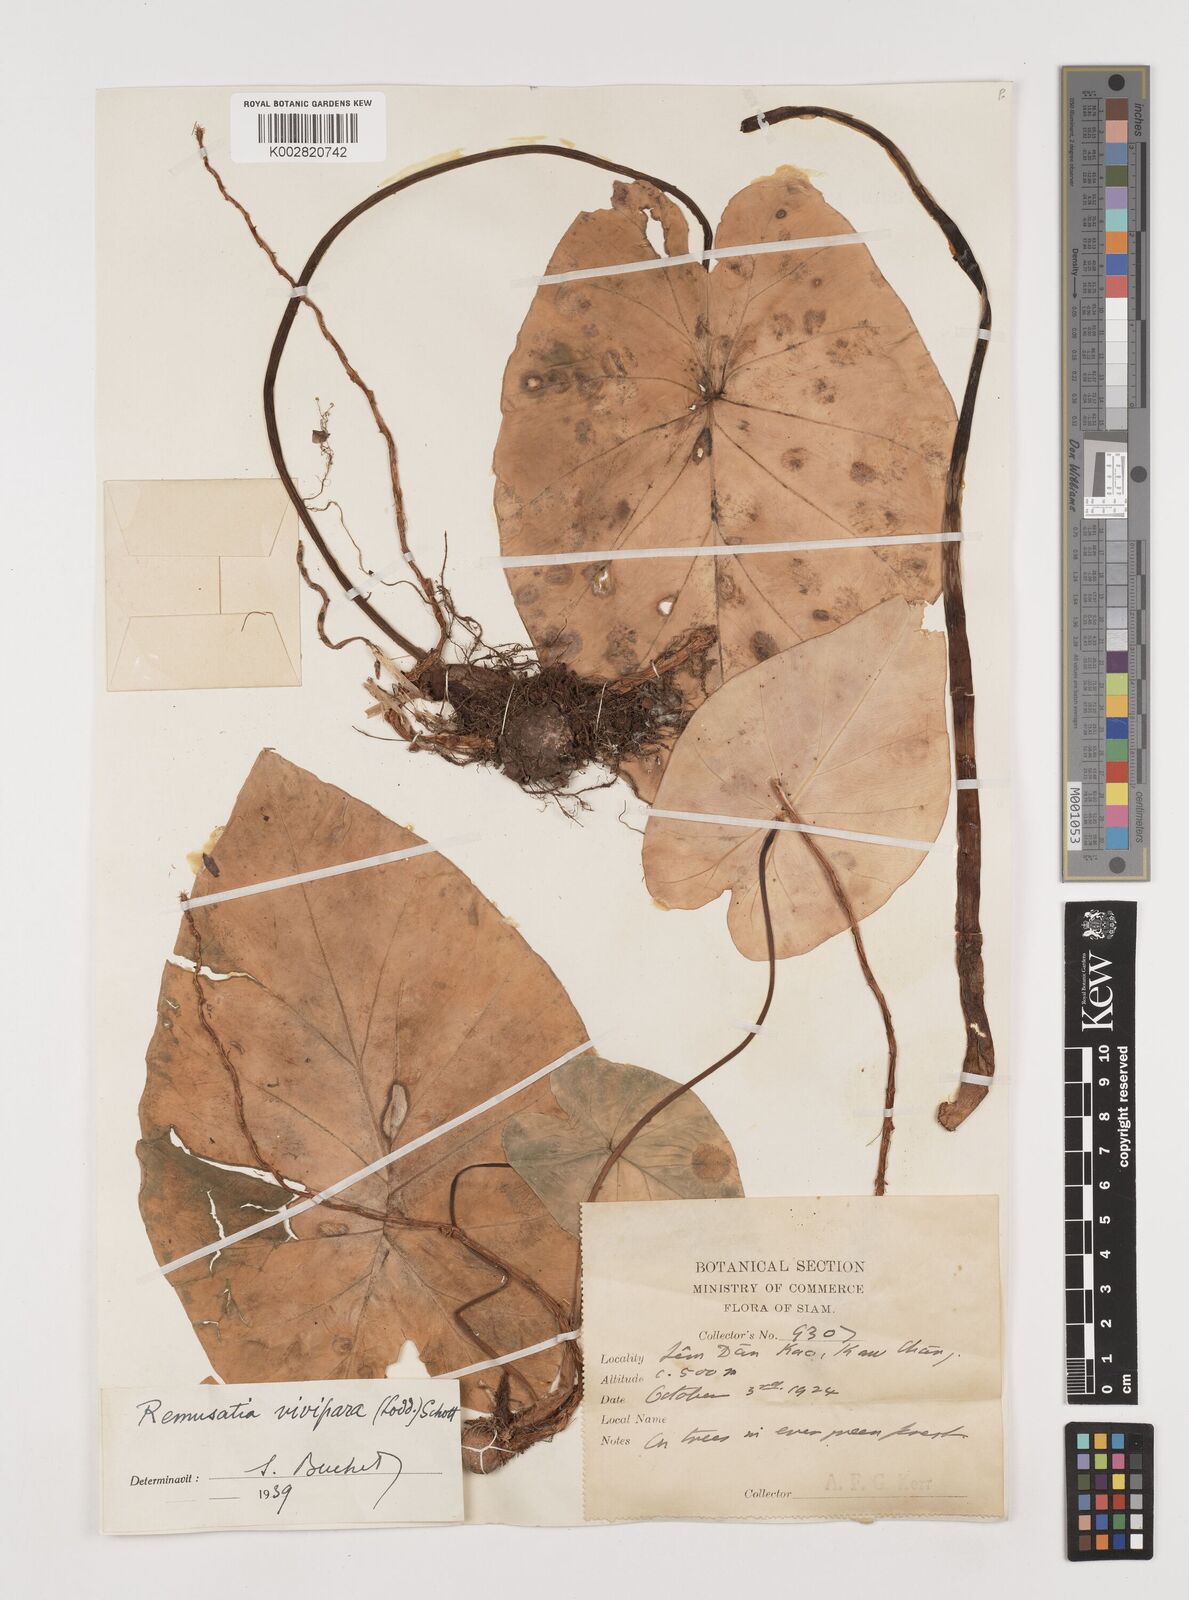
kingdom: Plantae
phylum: Tracheophyta
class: Liliopsida
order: Alismatales
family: Araceae
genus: Remusatia
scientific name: Remusatia vivipara
